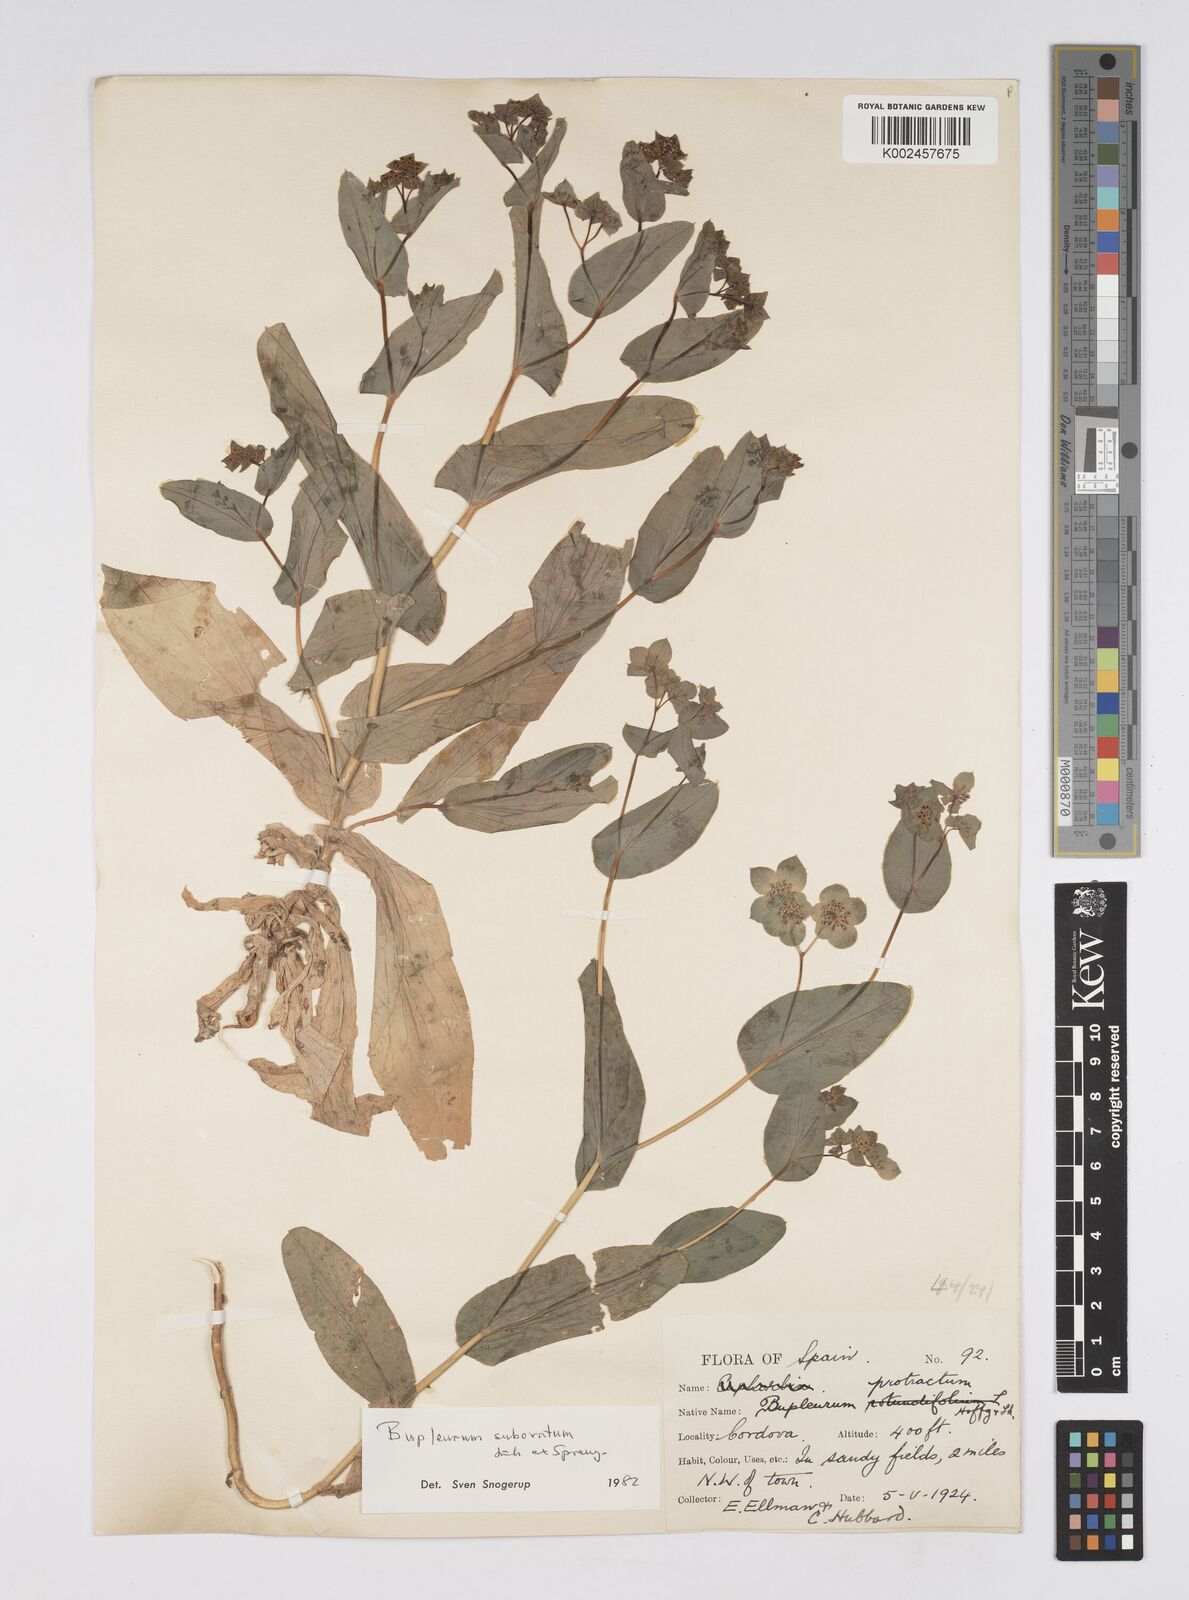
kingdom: Plantae
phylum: Tracheophyta
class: Magnoliopsida
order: Apiales
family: Apiaceae
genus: Bupleurum
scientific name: Bupleurum lancifolium
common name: False thorow-wax
